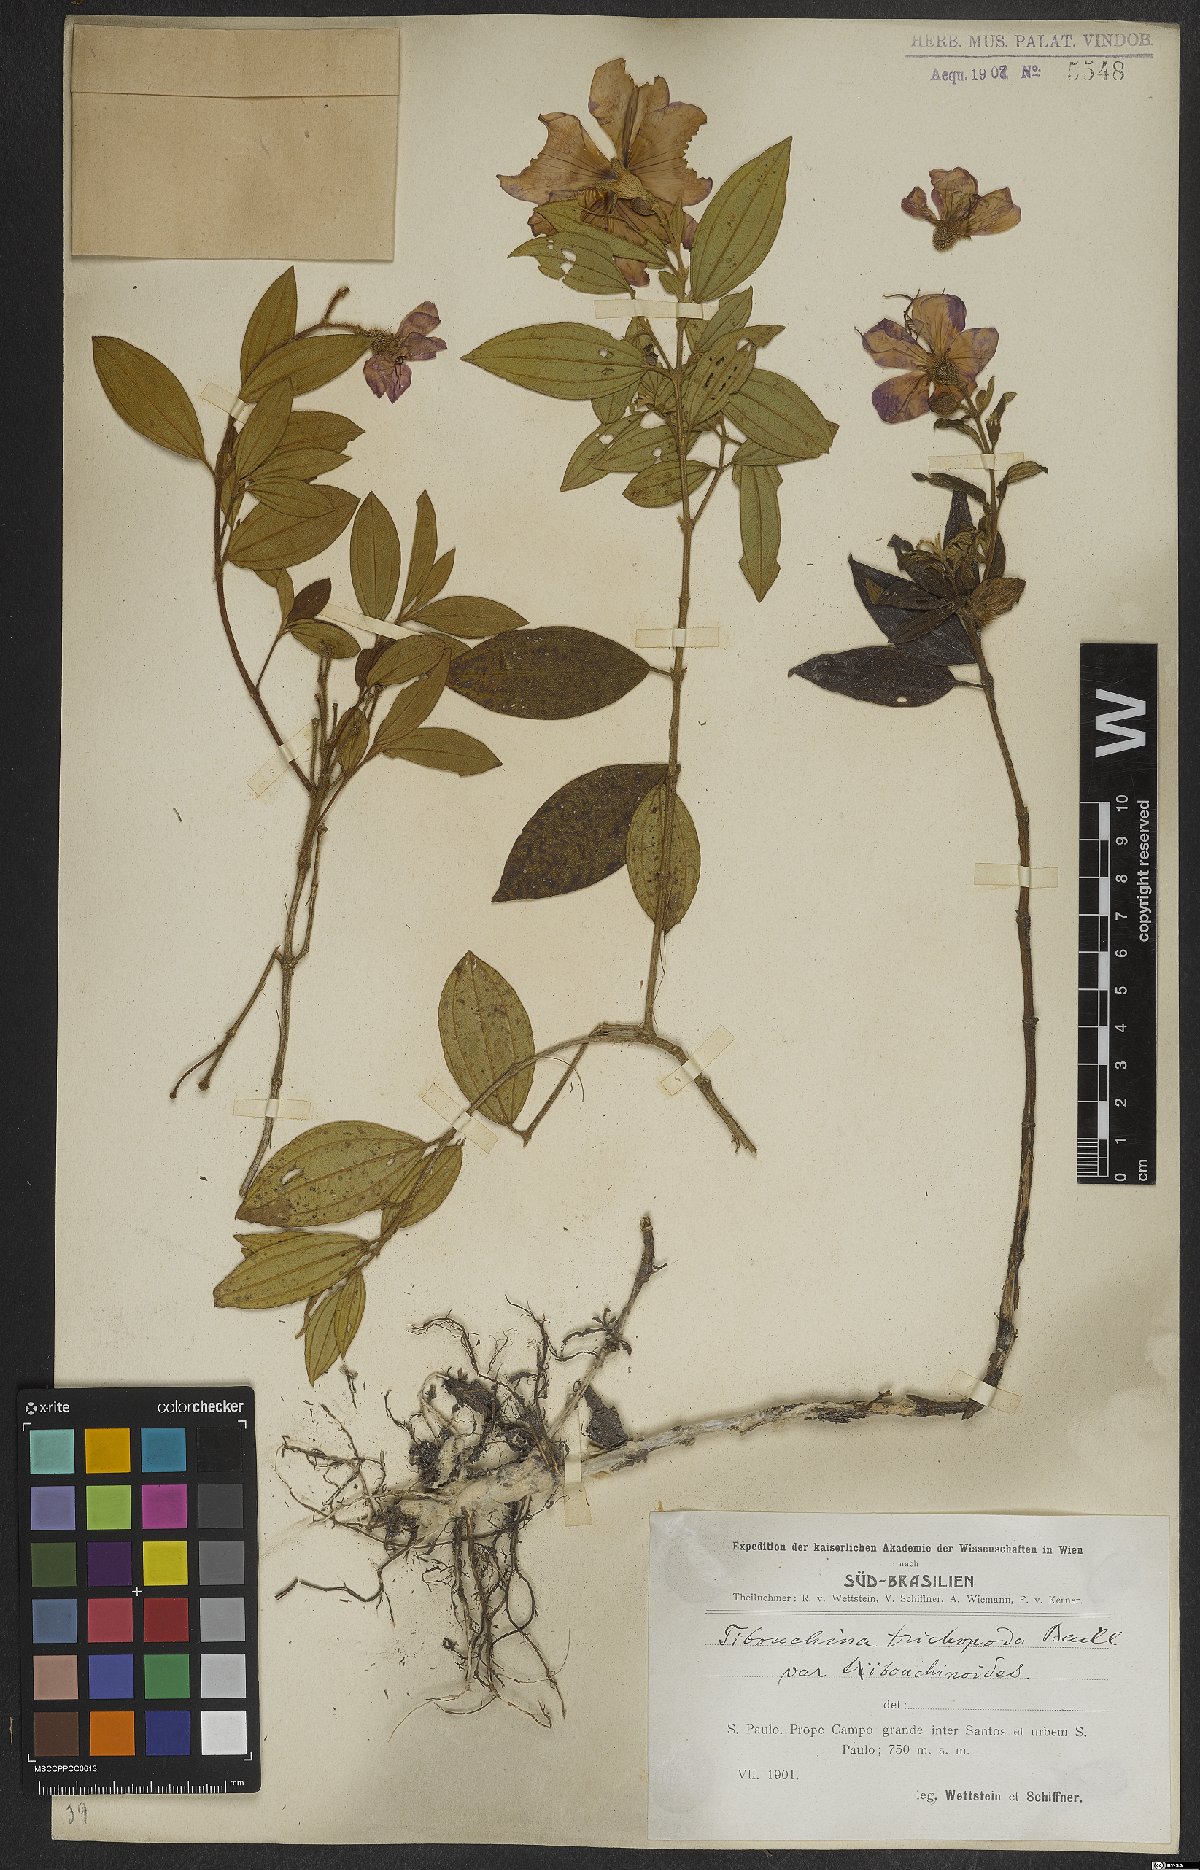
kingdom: Plantae
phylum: Tracheophyta
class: Magnoliopsida
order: Myrtales
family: Melastomataceae
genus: Pleroma
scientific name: Pleroma trichopodum
